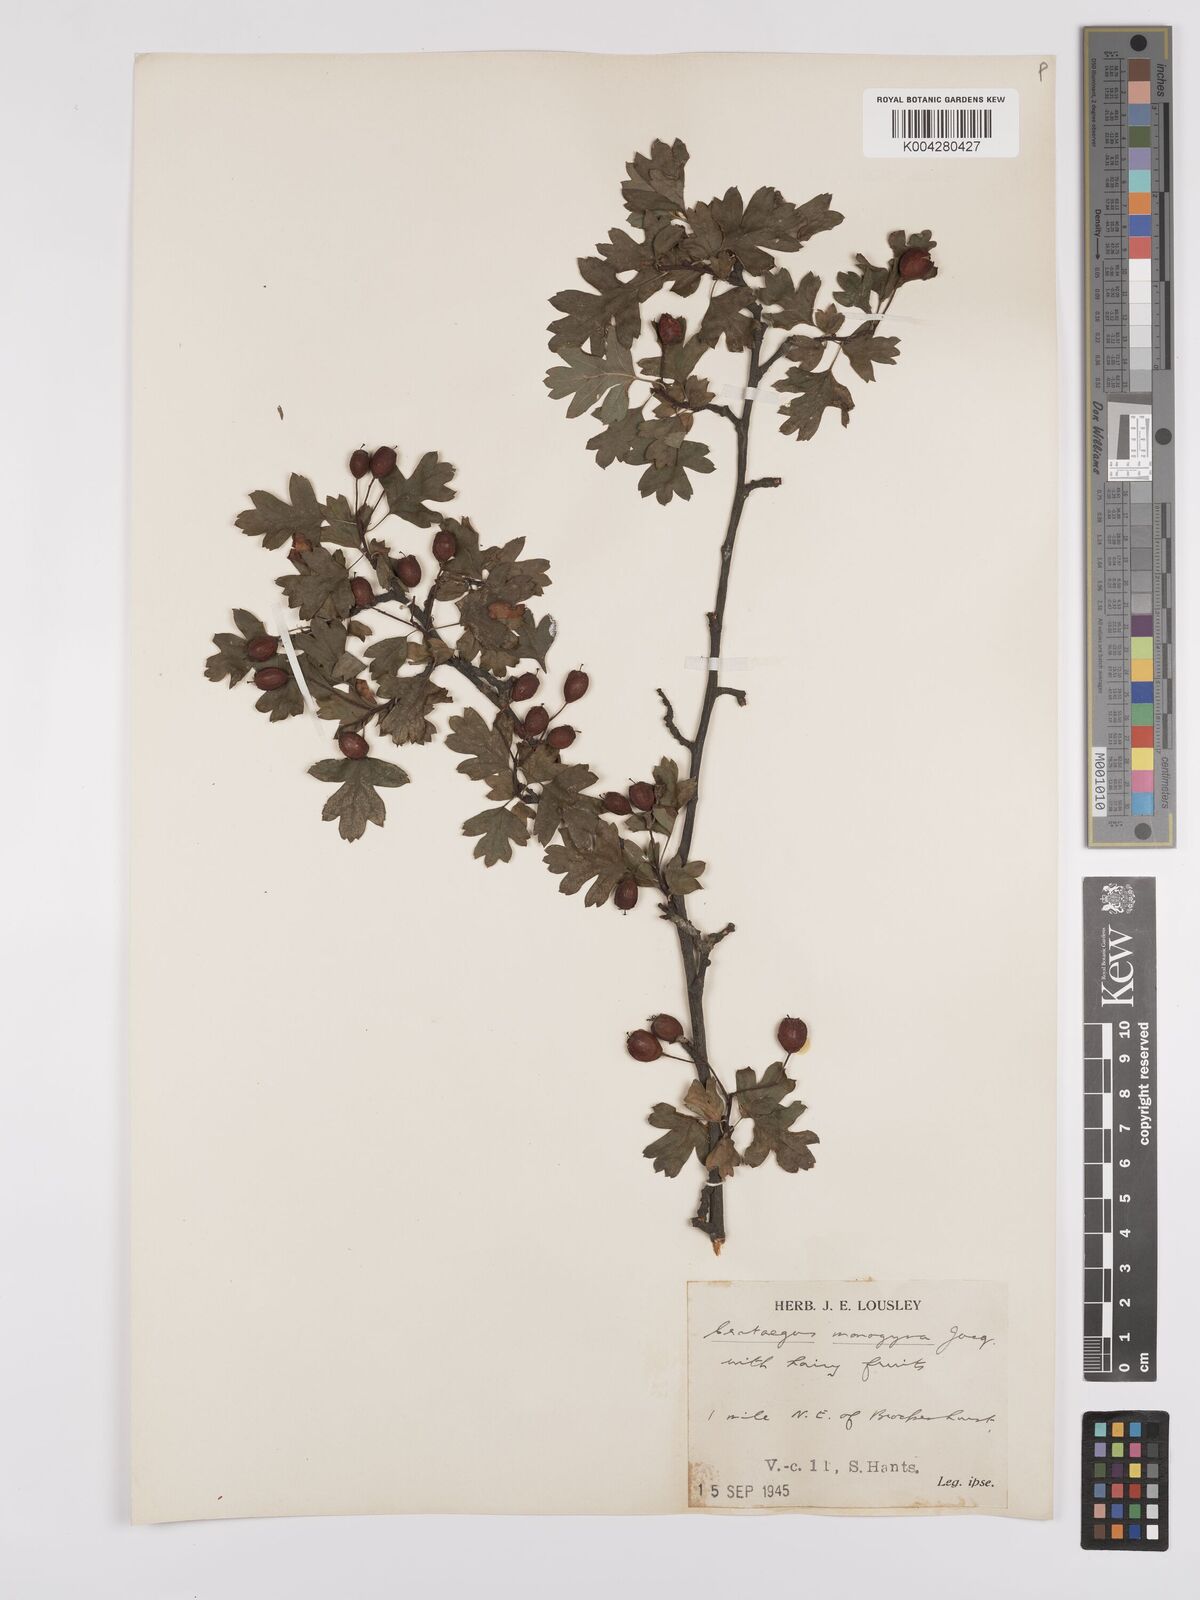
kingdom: Plantae
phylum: Tracheophyta
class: Magnoliopsida
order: Rosales
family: Rosaceae
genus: Crataegus
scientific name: Crataegus monogyna
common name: Hawthorn
